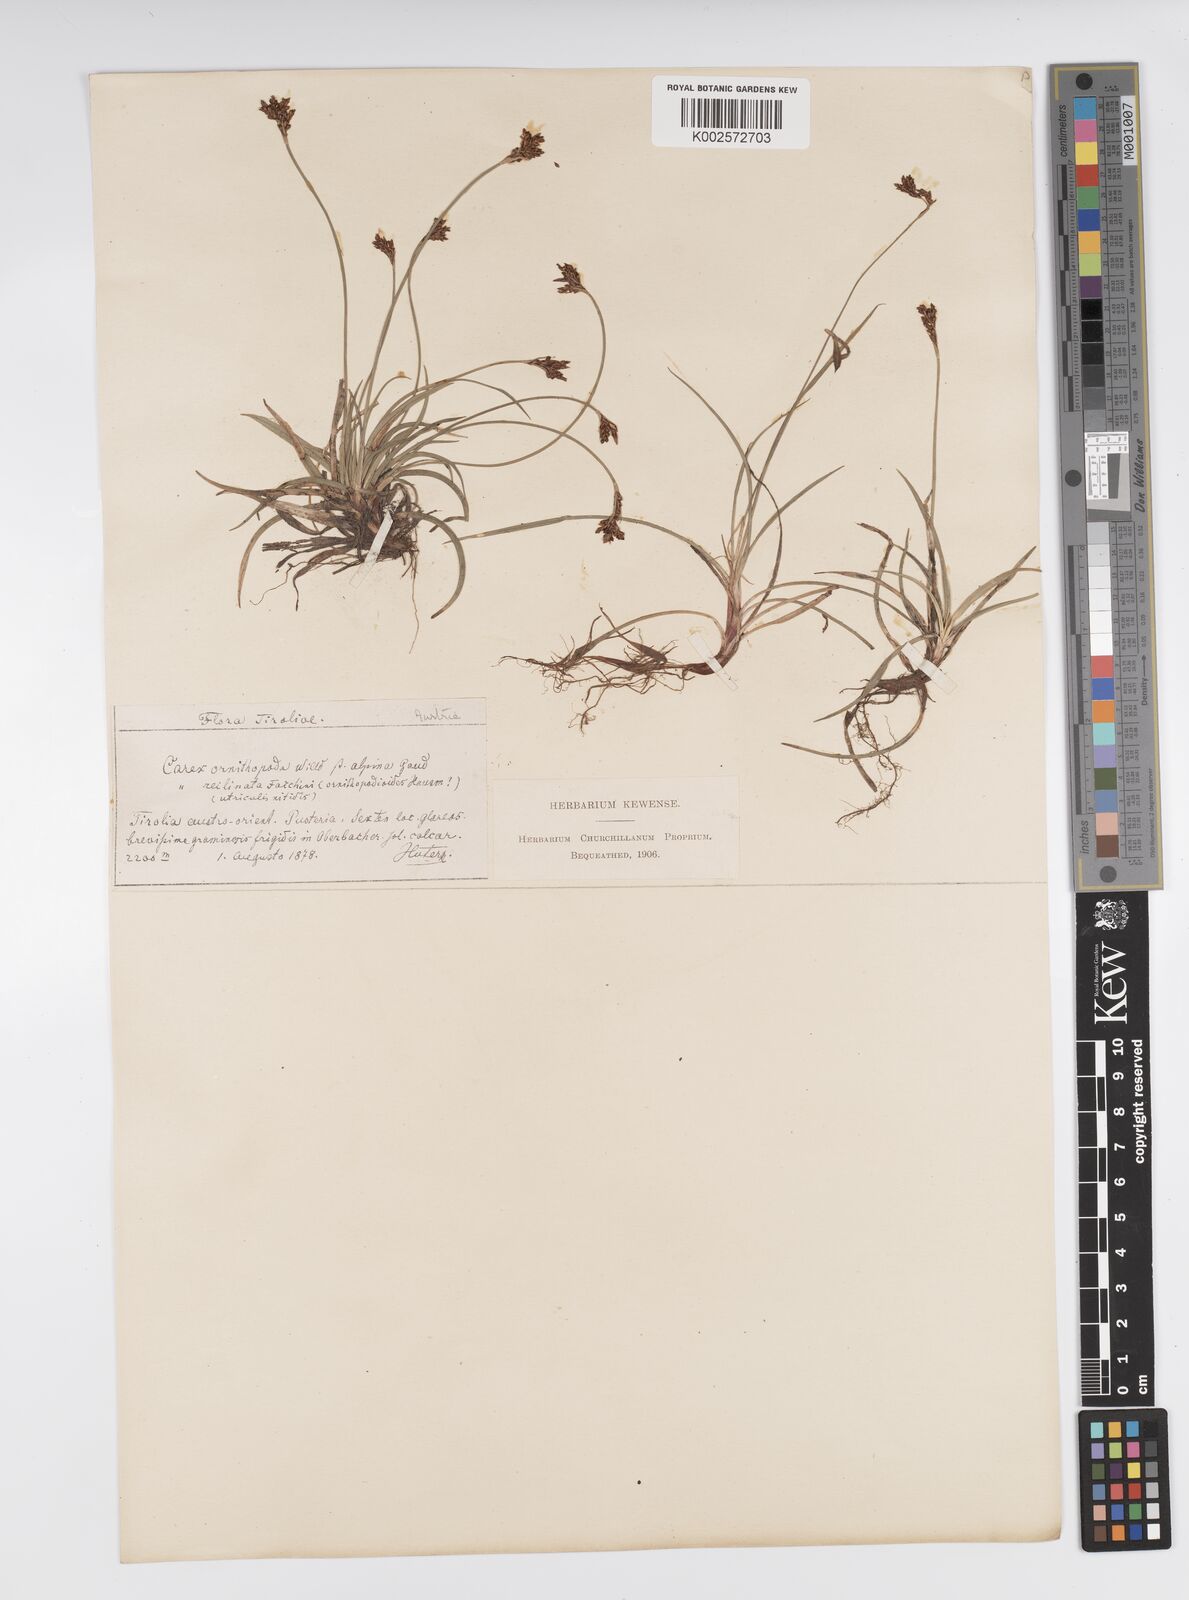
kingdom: Plantae
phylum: Tracheophyta
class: Liliopsida
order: Poales
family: Cyperaceae
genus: Carex
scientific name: Carex ornithopoda
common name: Bird's-foot sedge
